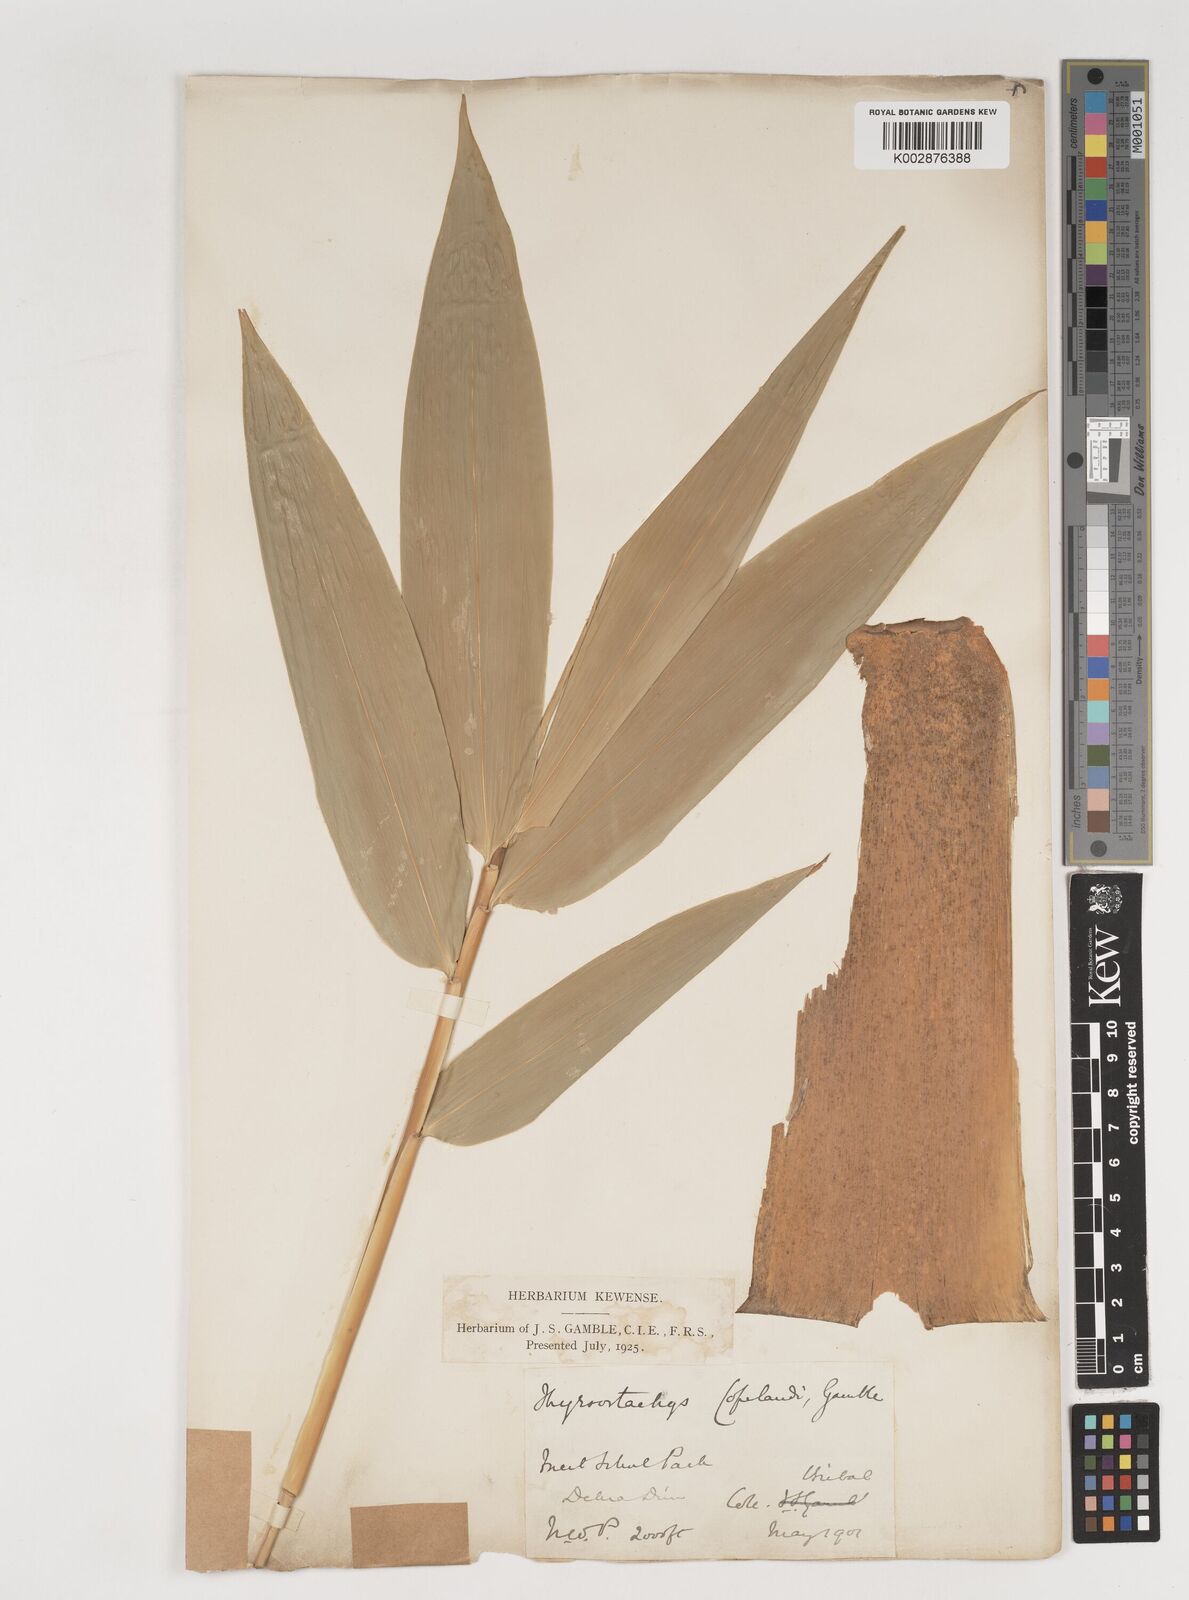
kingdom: Plantae
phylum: Tracheophyta
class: Liliopsida
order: Poales
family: Poaceae
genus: Bambusa
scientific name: Bambusa copelandii
